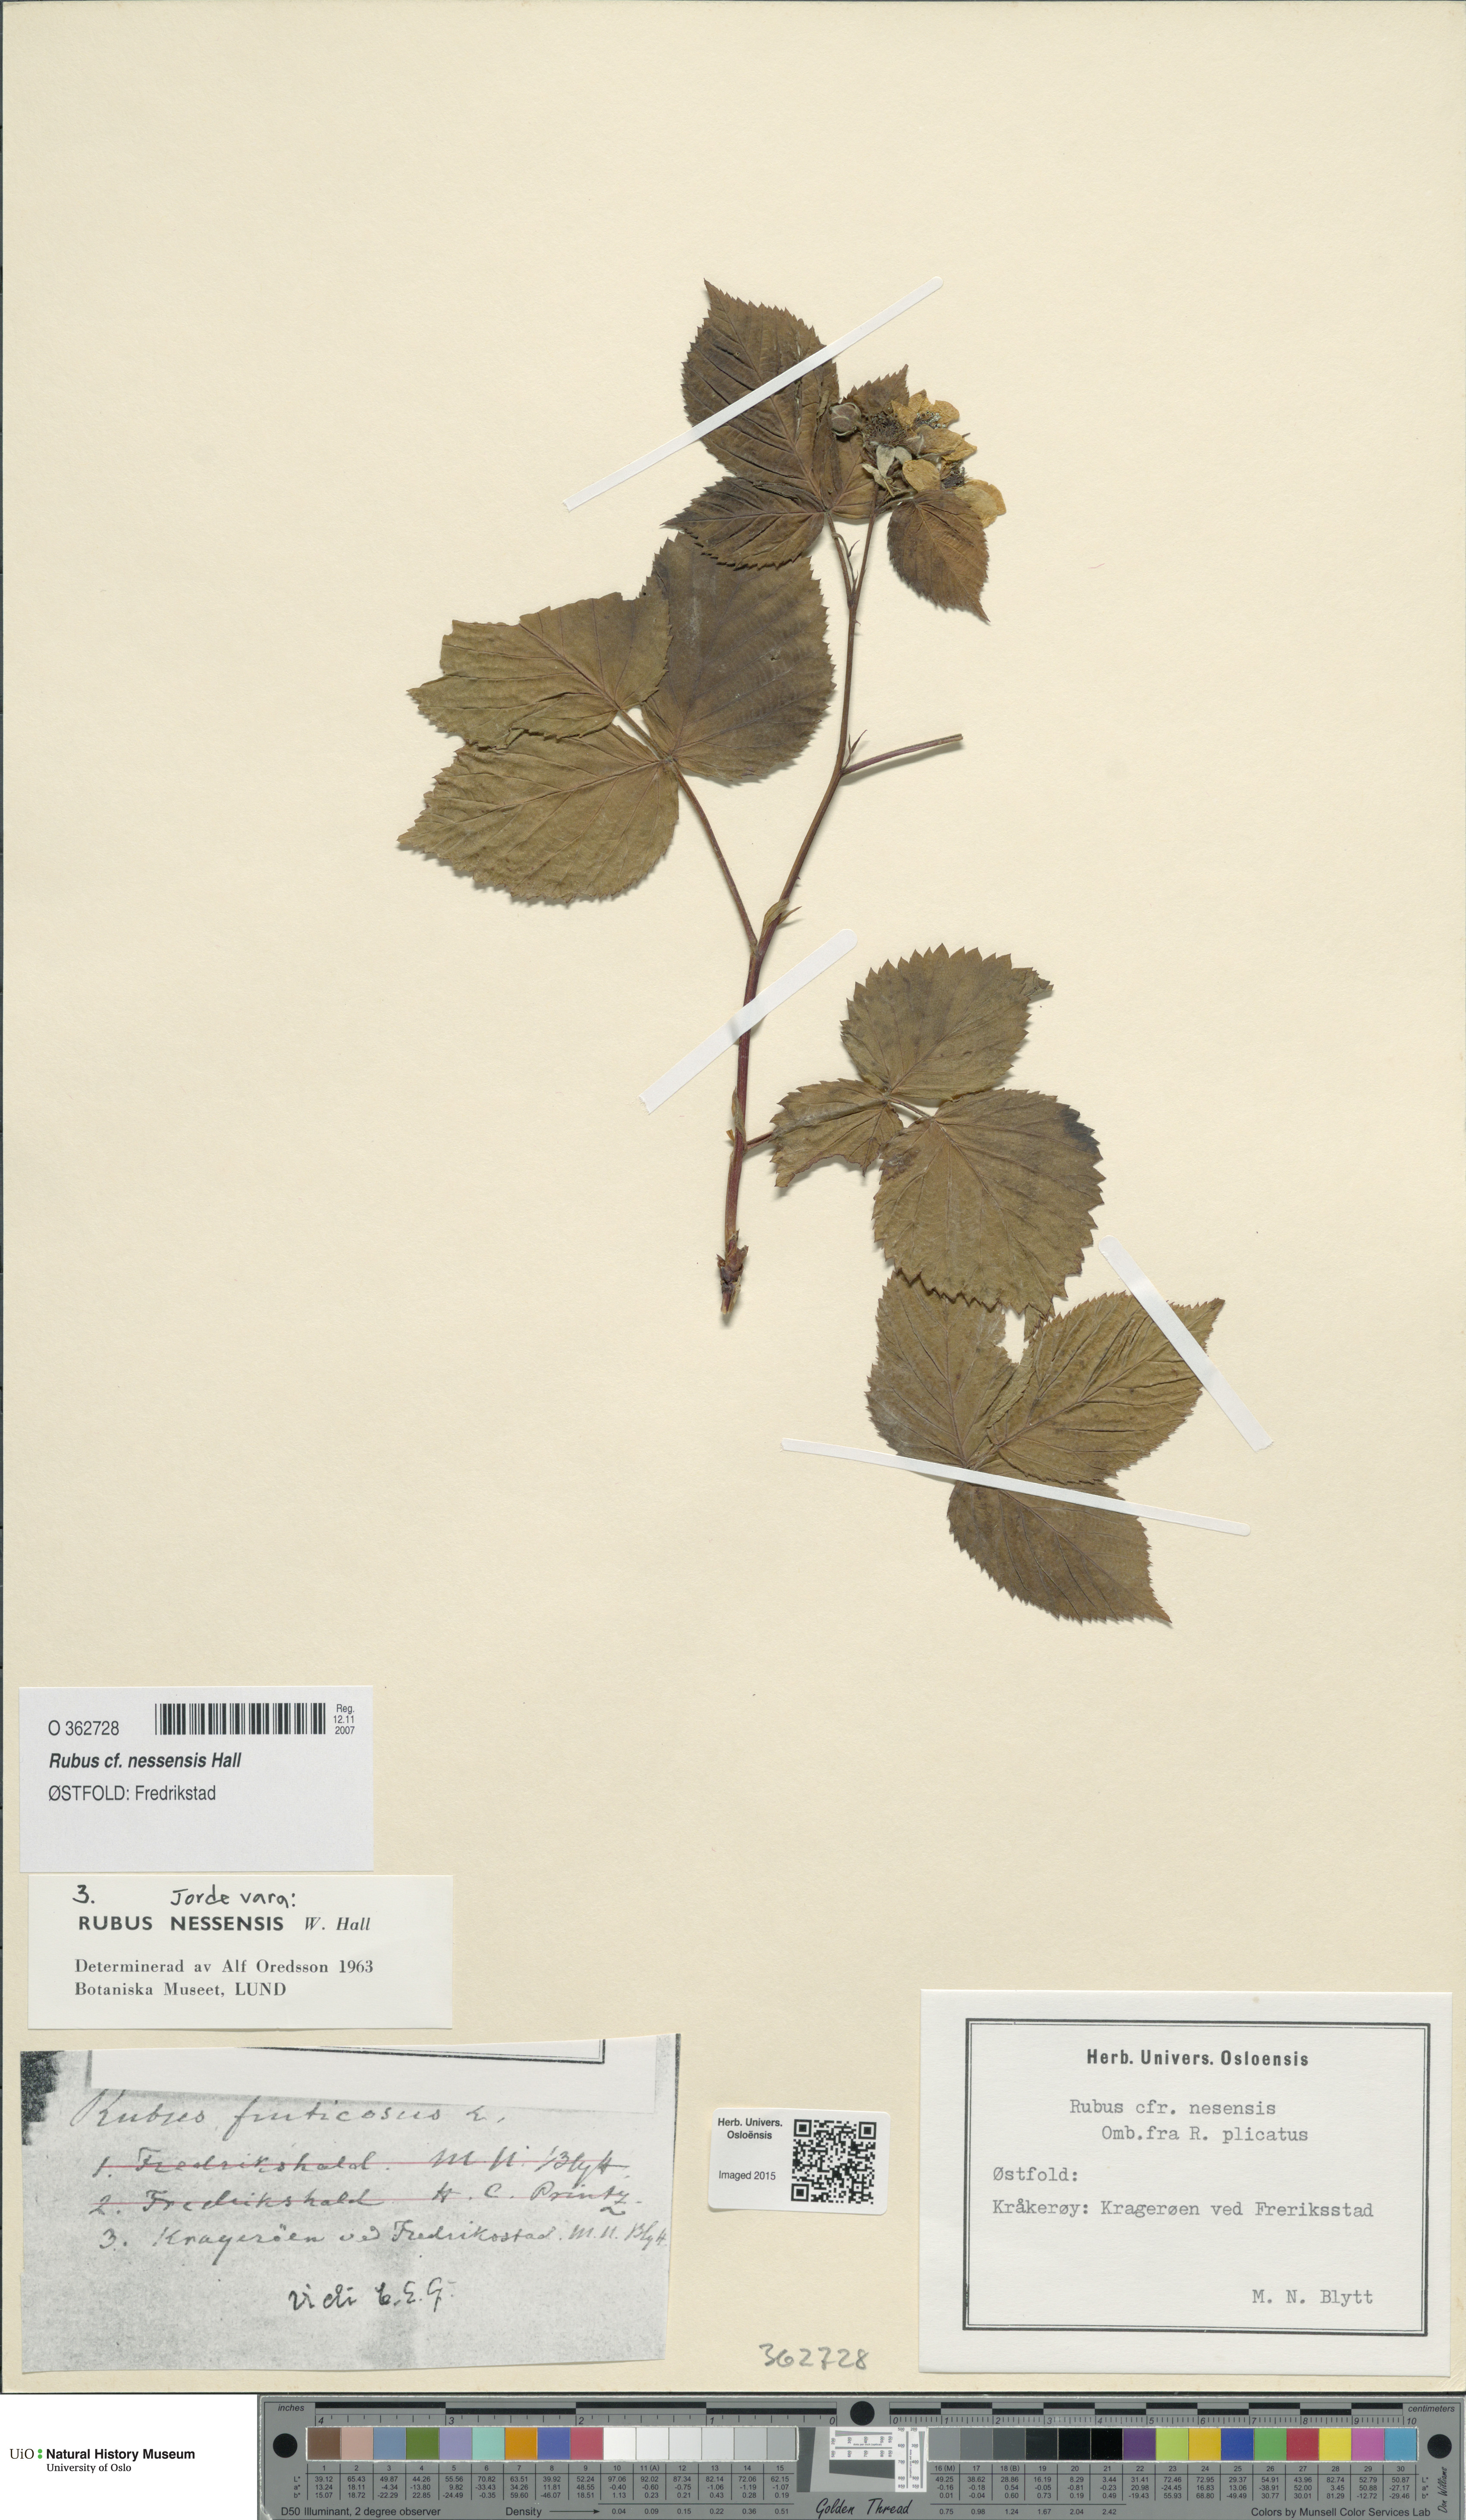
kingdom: Plantae
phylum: Tracheophyta
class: Magnoliopsida
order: Rosales
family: Rosaceae
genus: Rubus
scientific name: Rubus polonicus
